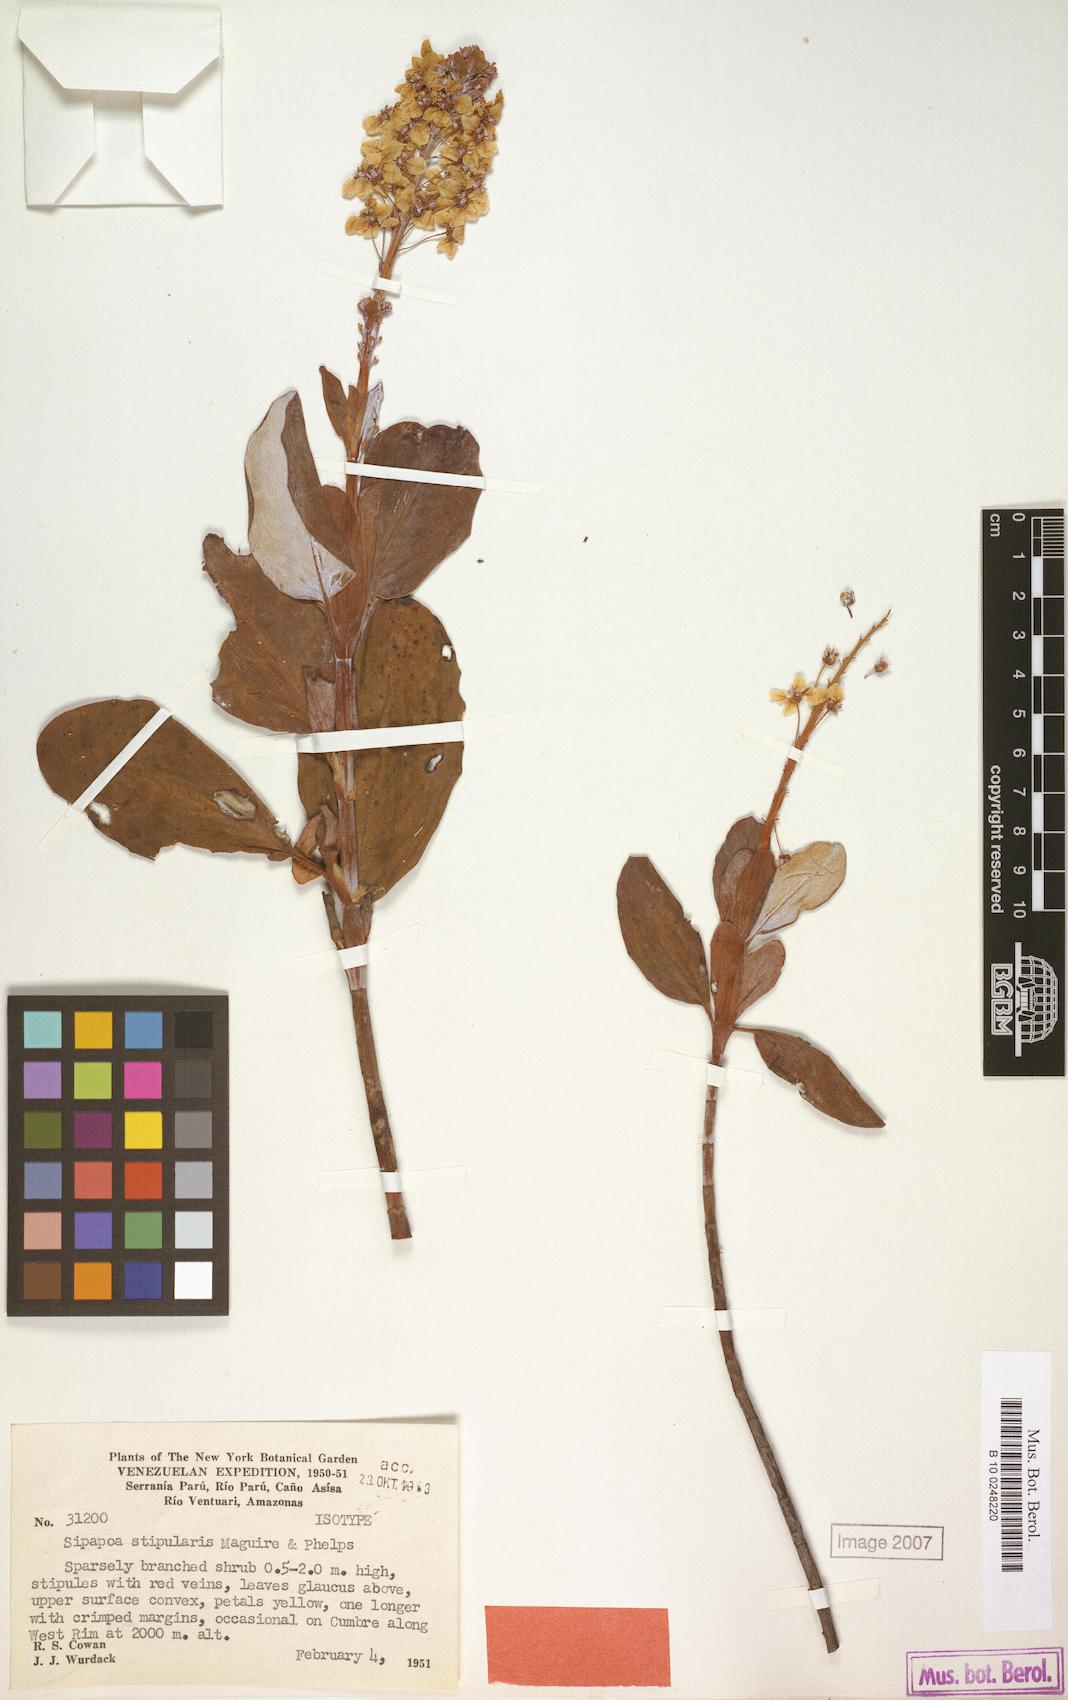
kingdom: Plantae
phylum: Tracheophyta
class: Magnoliopsida
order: Malpighiales
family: Malpighiaceae
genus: Diacidia
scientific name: Diacidia stipularis
